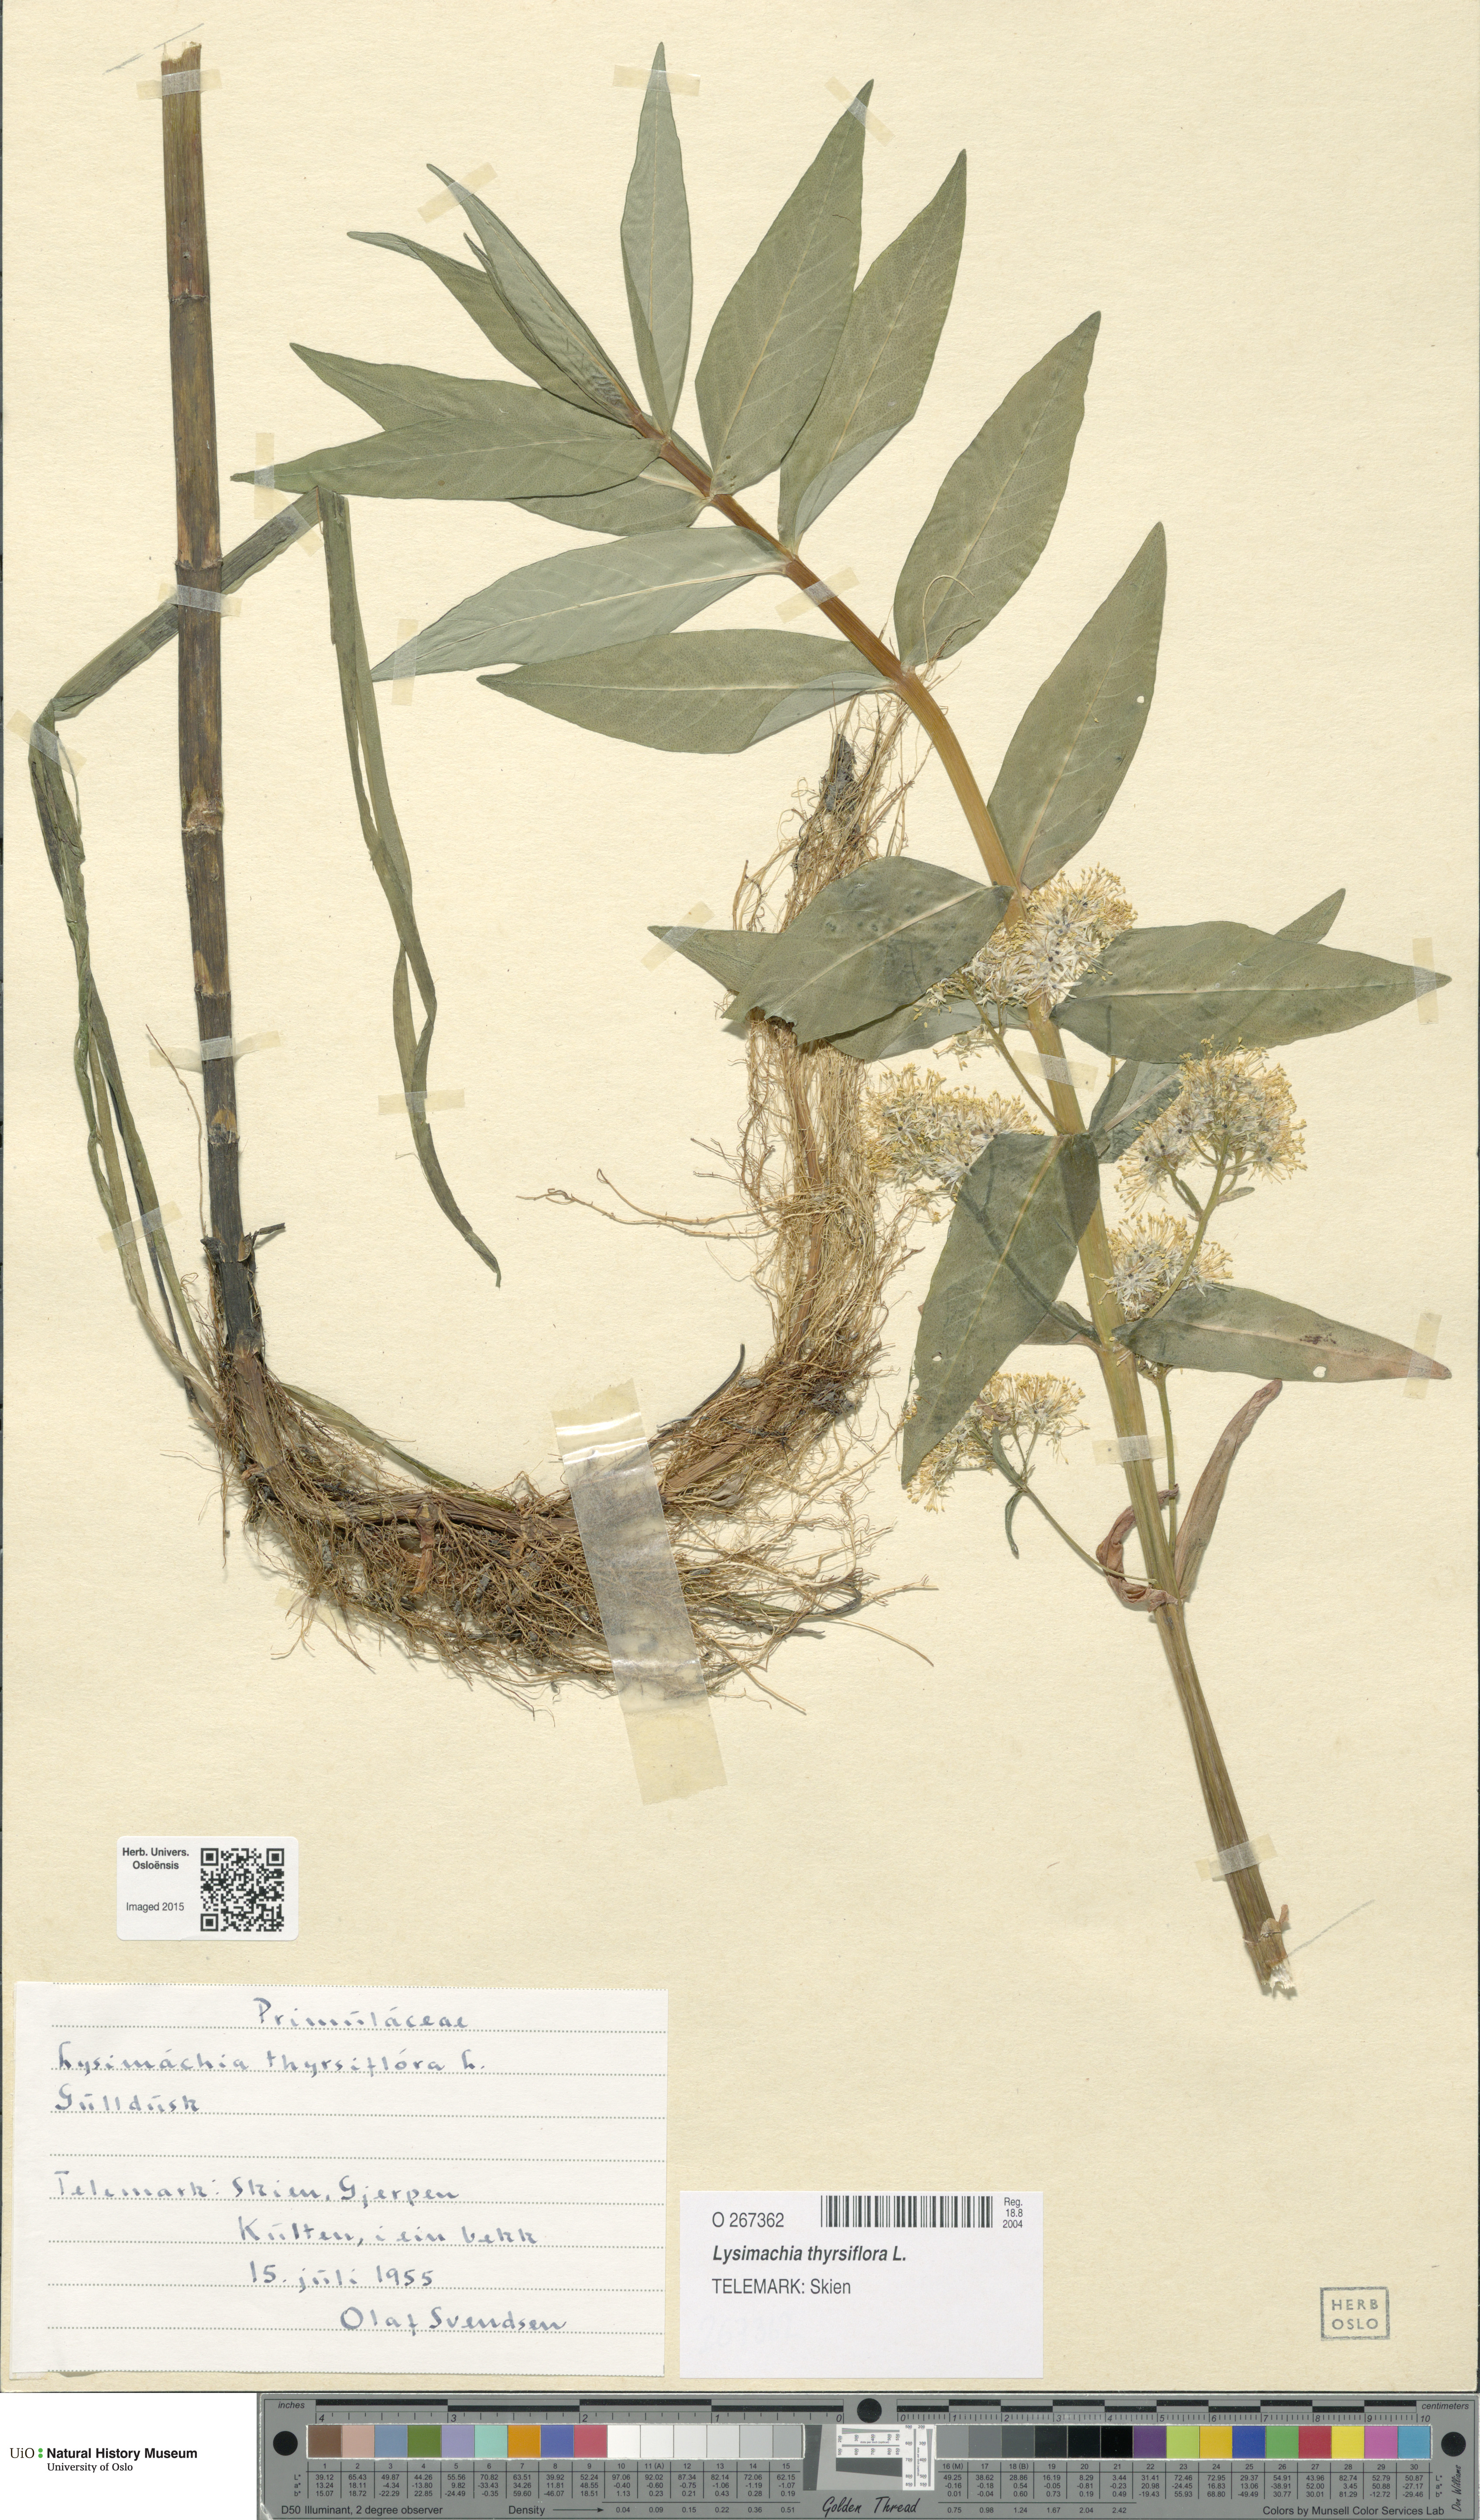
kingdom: Plantae
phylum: Tracheophyta
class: Magnoliopsida
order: Ericales
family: Primulaceae
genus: Lysimachia
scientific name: Lysimachia thyrsiflora
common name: Tufted loosestrife
